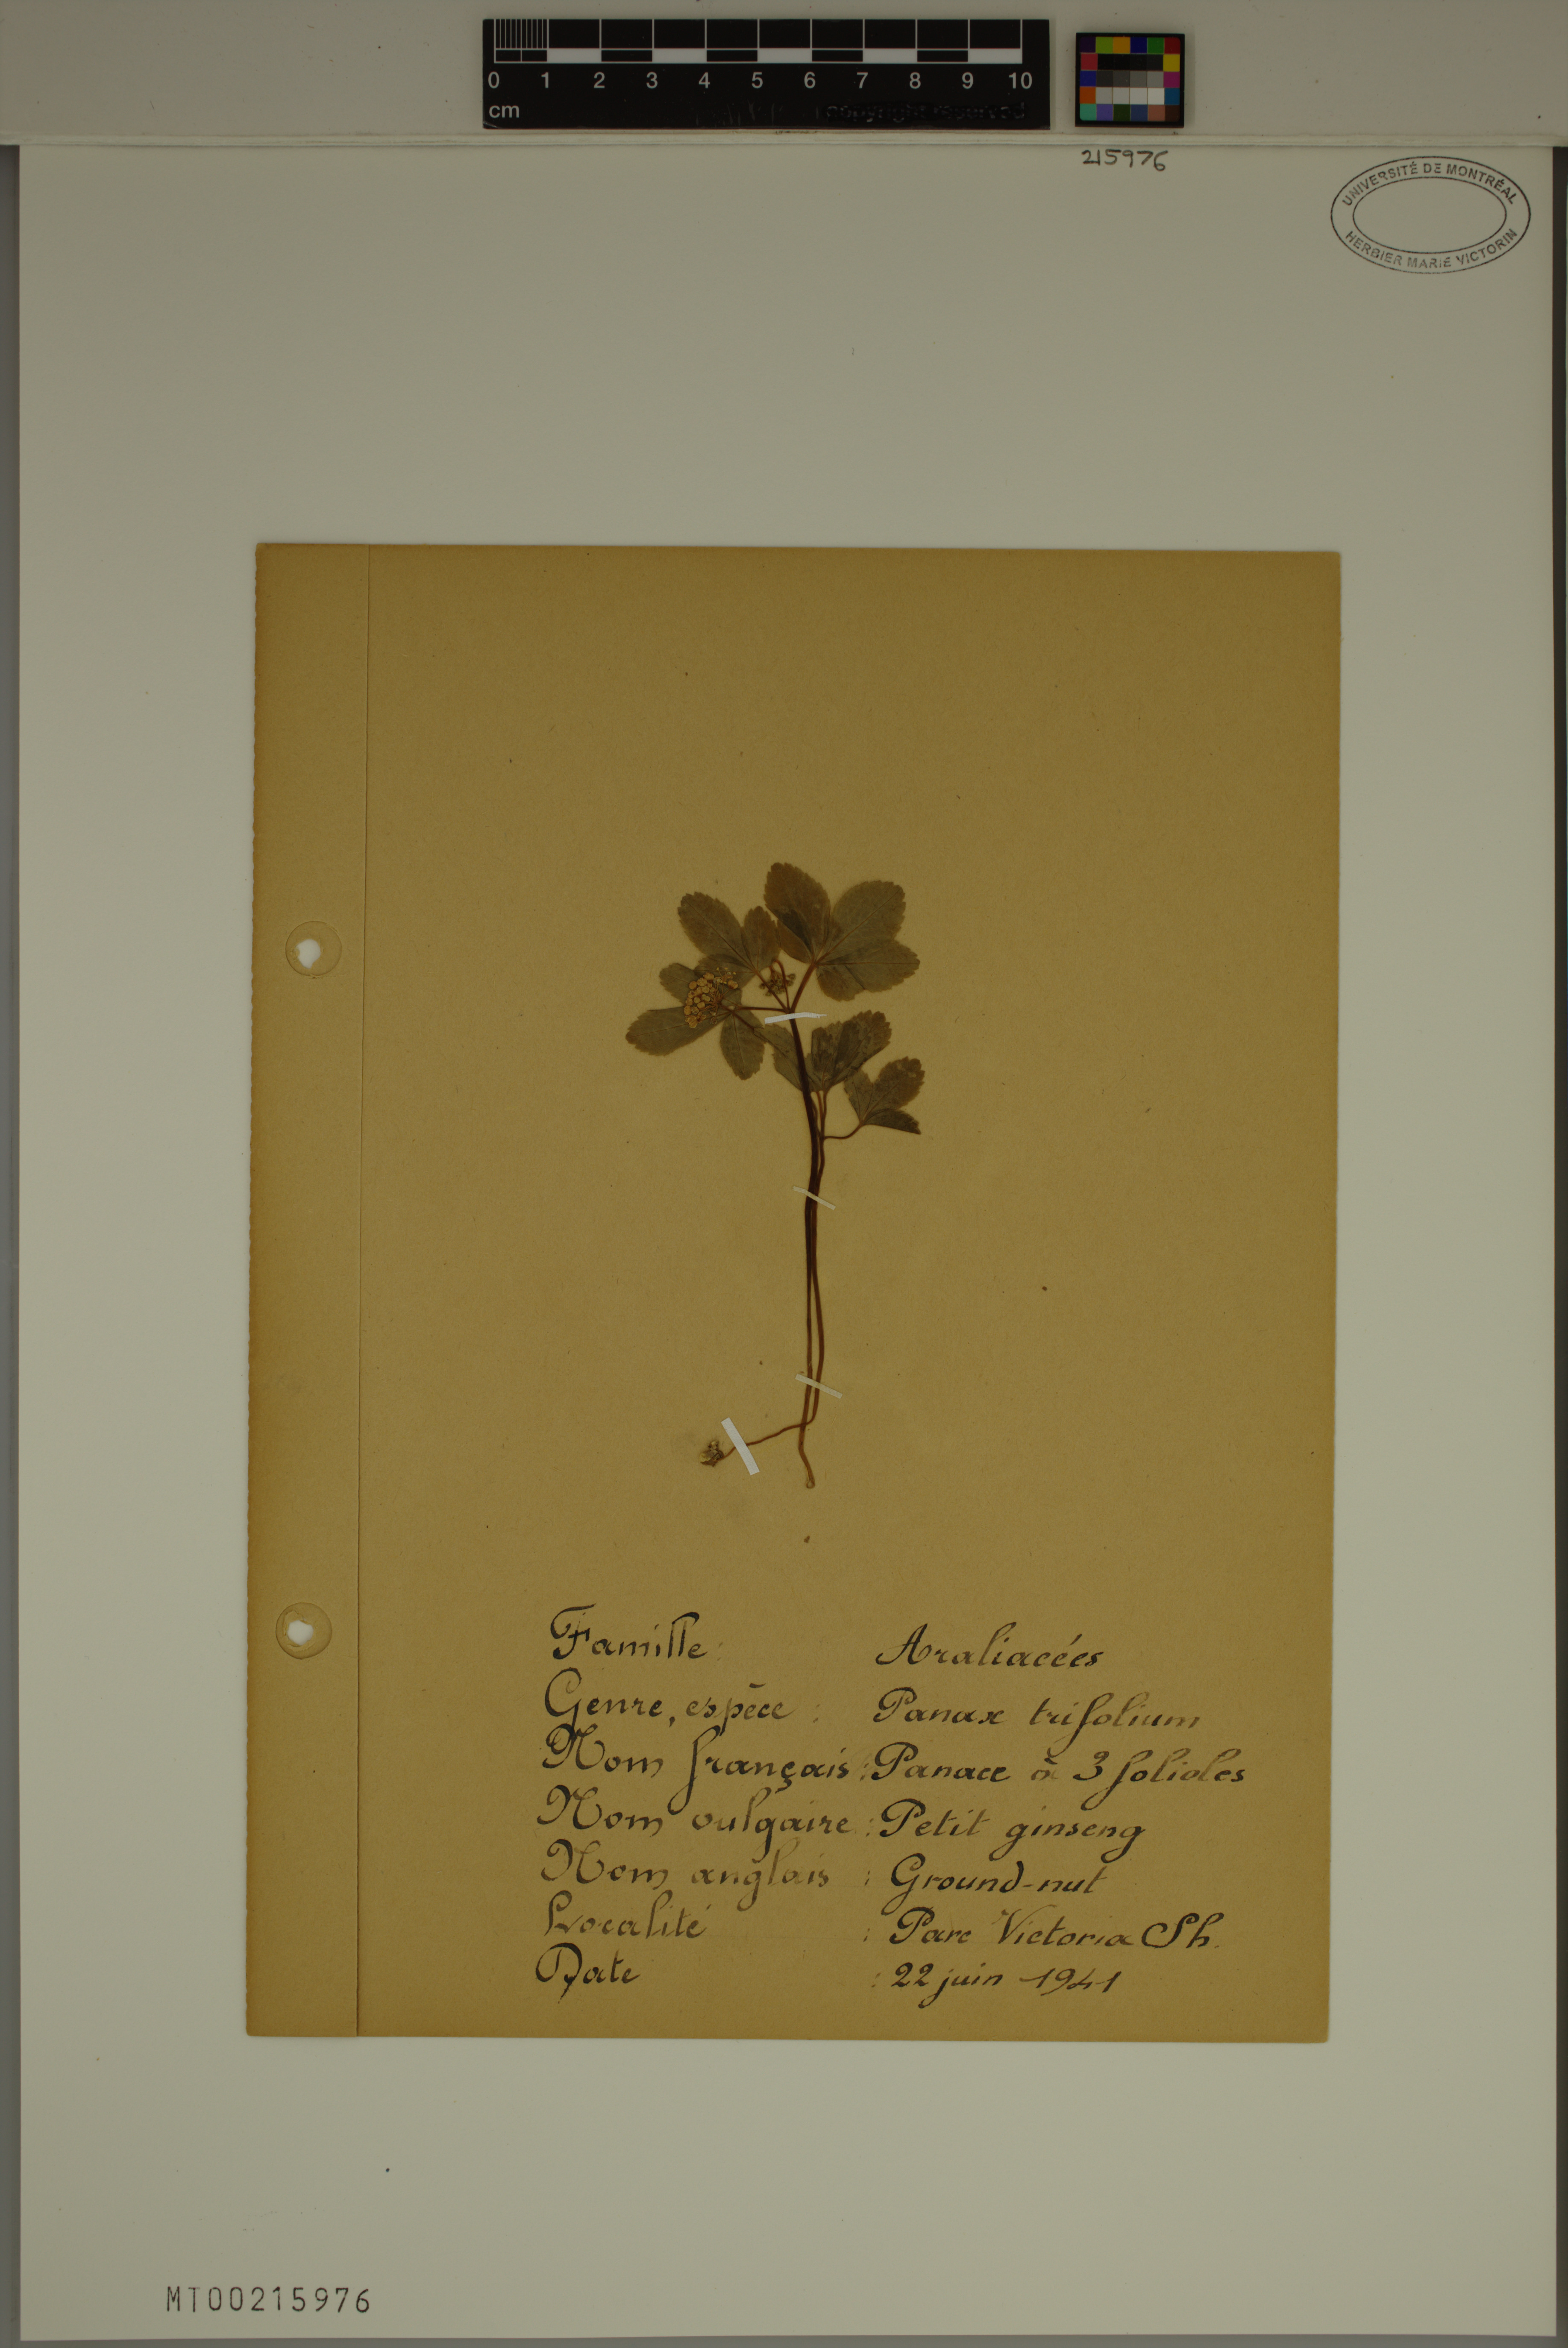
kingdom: Plantae
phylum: Tracheophyta
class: Magnoliopsida
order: Apiales
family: Araliaceae
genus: Panax
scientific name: Panax trifolius
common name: Dwarf ginseng
